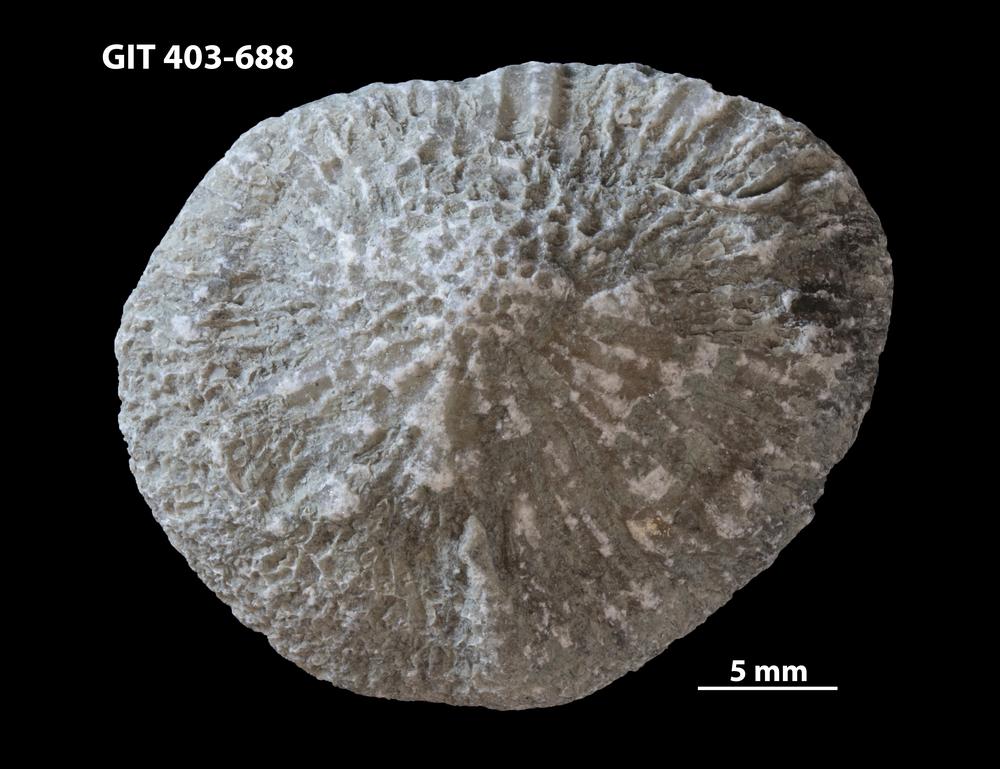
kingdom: Animalia
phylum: Cnidaria
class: Anthozoa
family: Favositidae
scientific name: Favositidae
